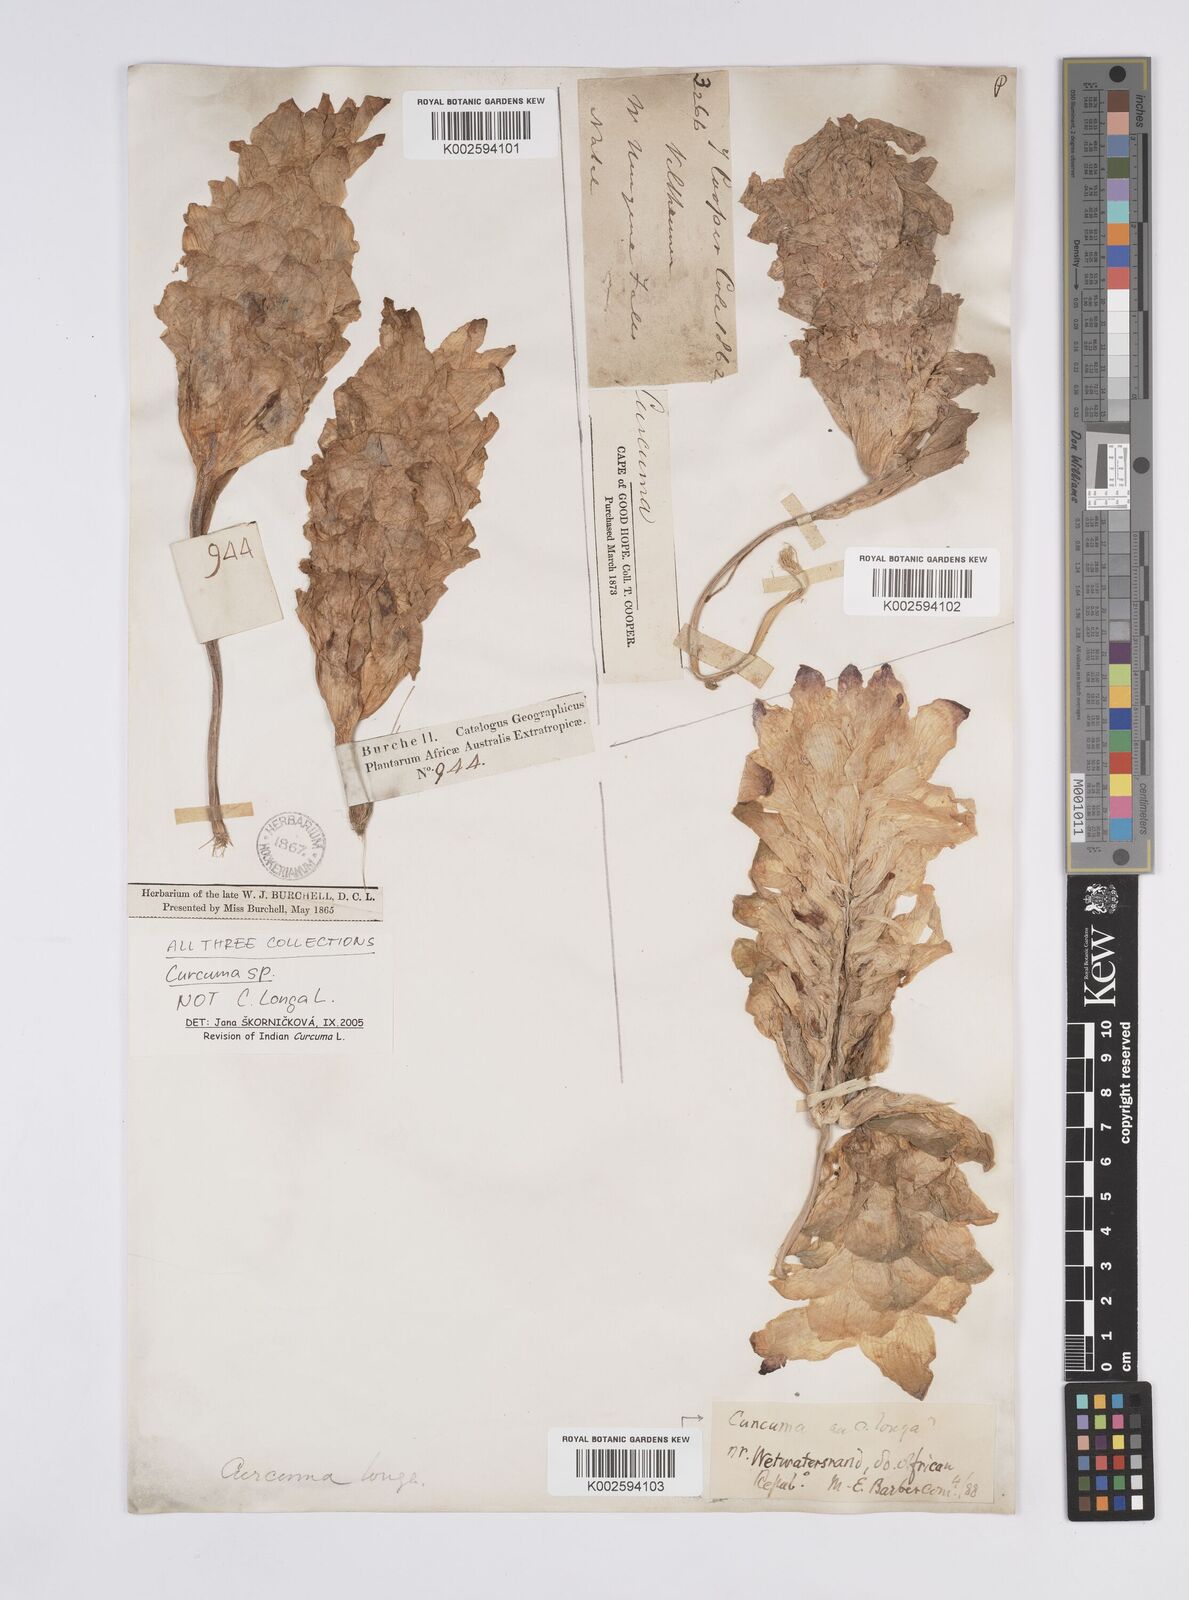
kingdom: Plantae
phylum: Tracheophyta
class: Liliopsida
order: Zingiberales
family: Zingiberaceae
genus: Curcuma
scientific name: Curcuma
